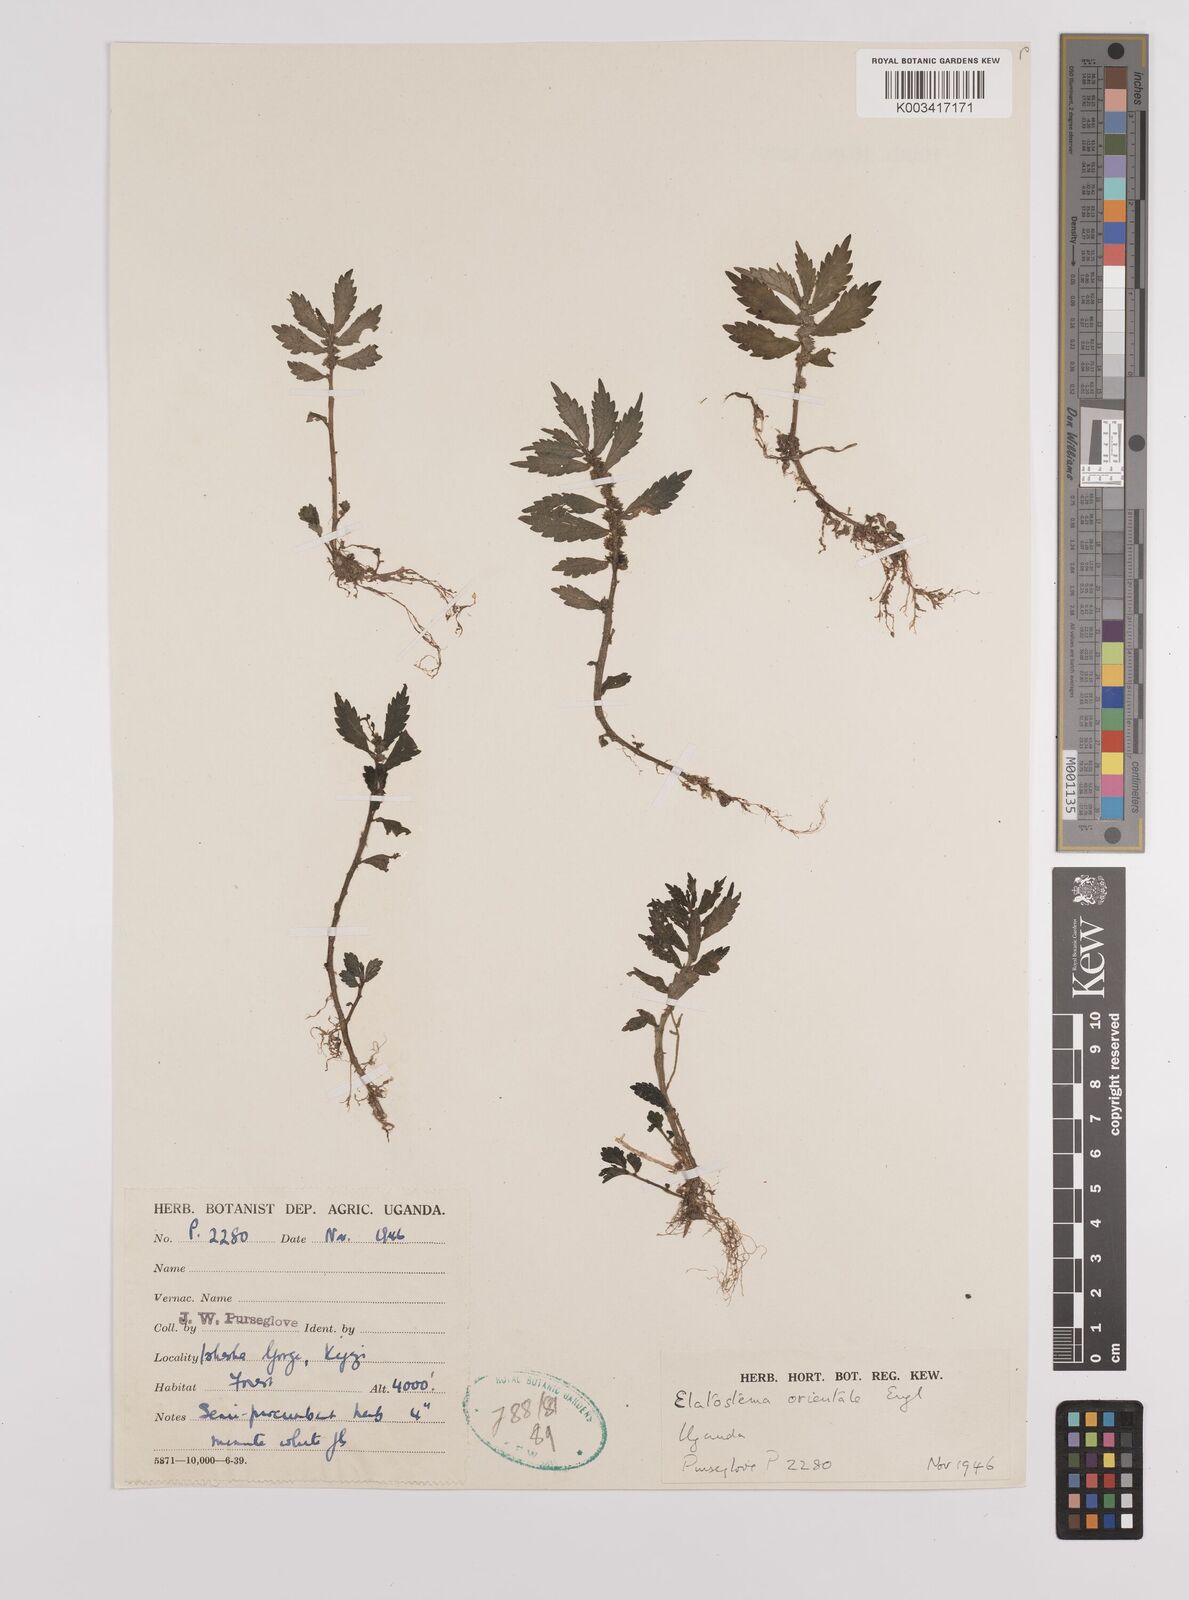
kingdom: Plantae
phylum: Tracheophyta
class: Magnoliopsida
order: Rosales
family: Urticaceae
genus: Elatostema
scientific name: Elatostema monticola
